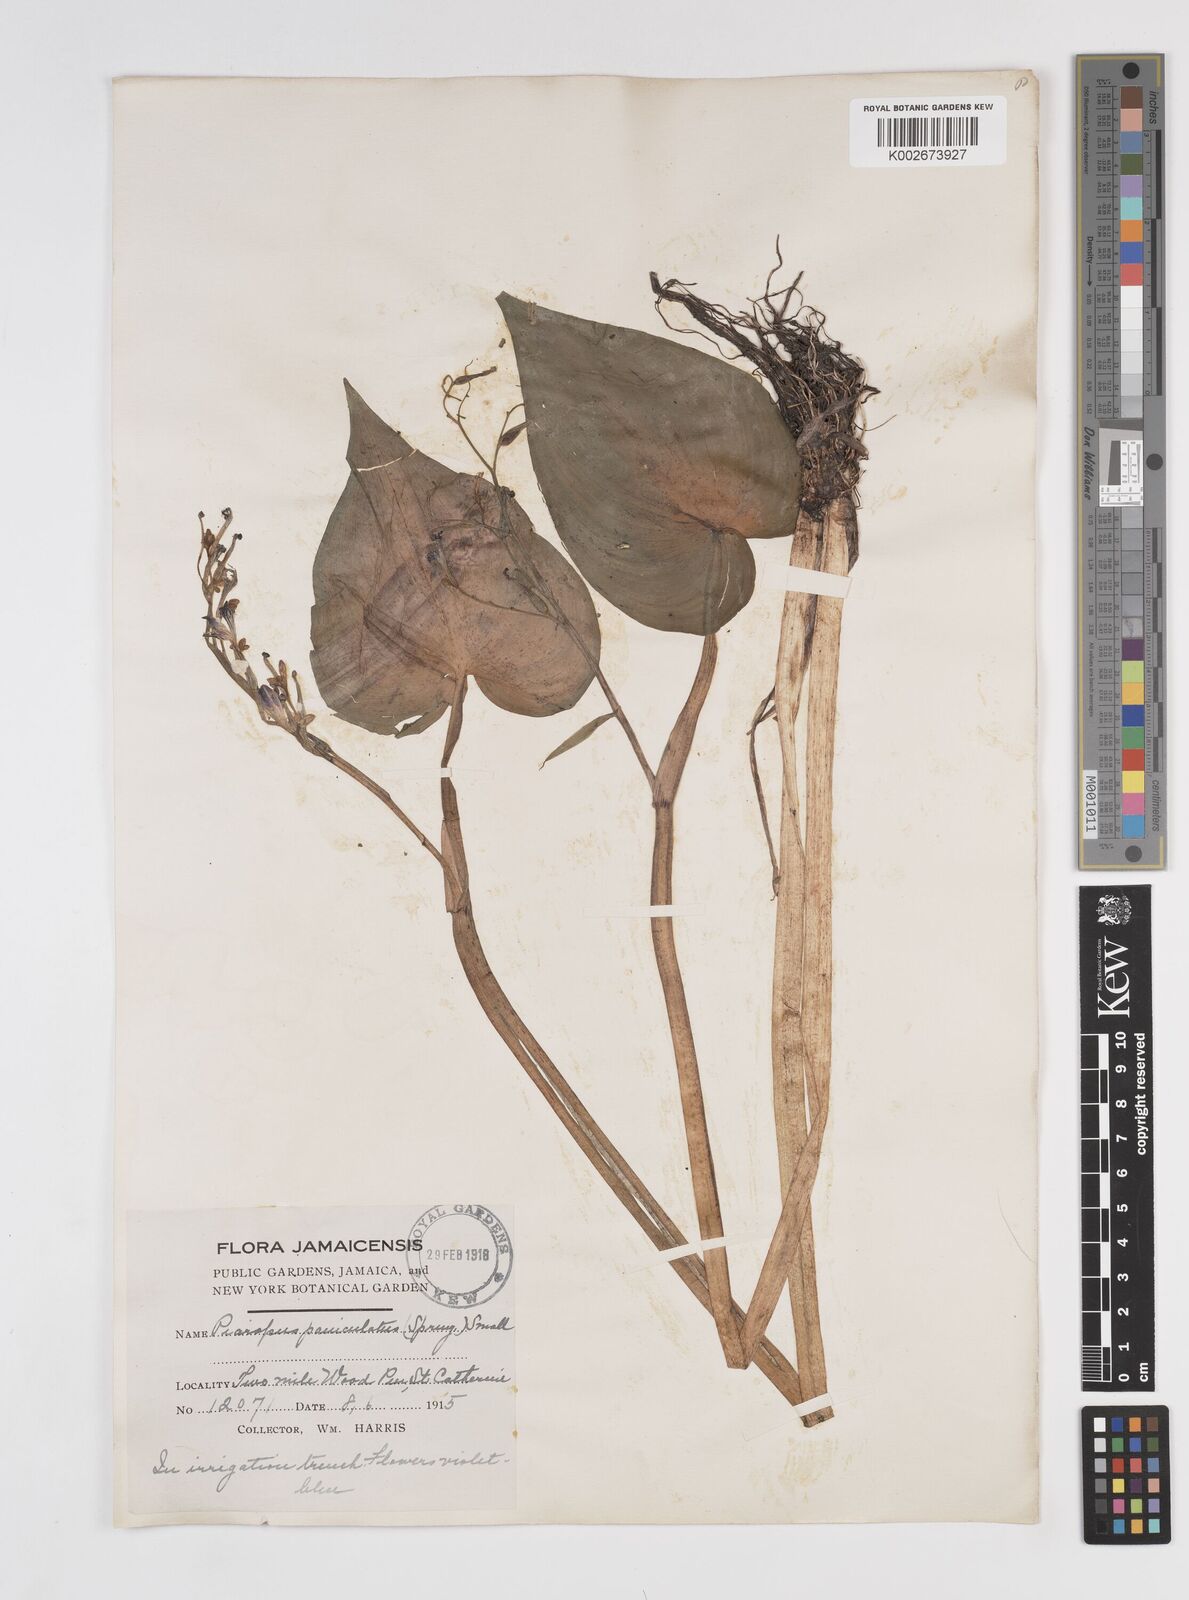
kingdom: Plantae
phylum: Tracheophyta
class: Liliopsida
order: Commelinales
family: Pontederiaceae
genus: Pontederia
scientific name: Pontederia paniculata
